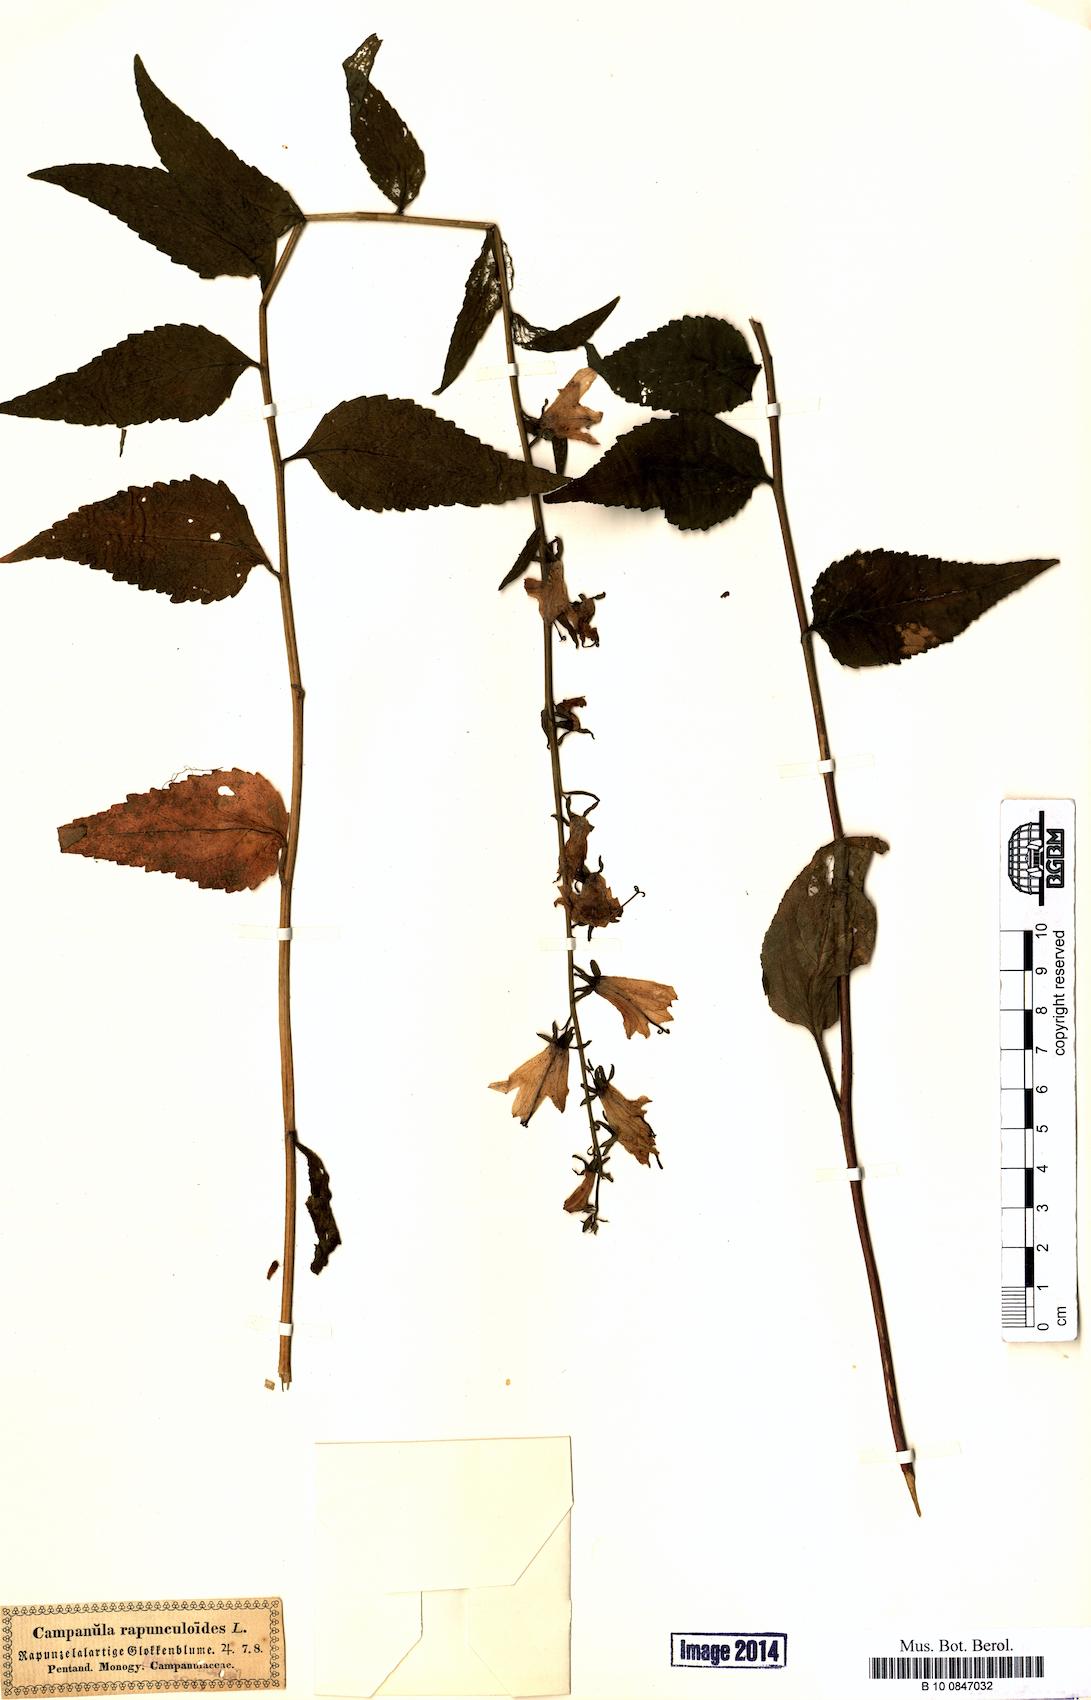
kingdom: Plantae
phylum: Tracheophyta
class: Magnoliopsida
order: Asterales
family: Campanulaceae
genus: Campanula
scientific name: Campanula rapunculoides
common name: Creeping bellflower
